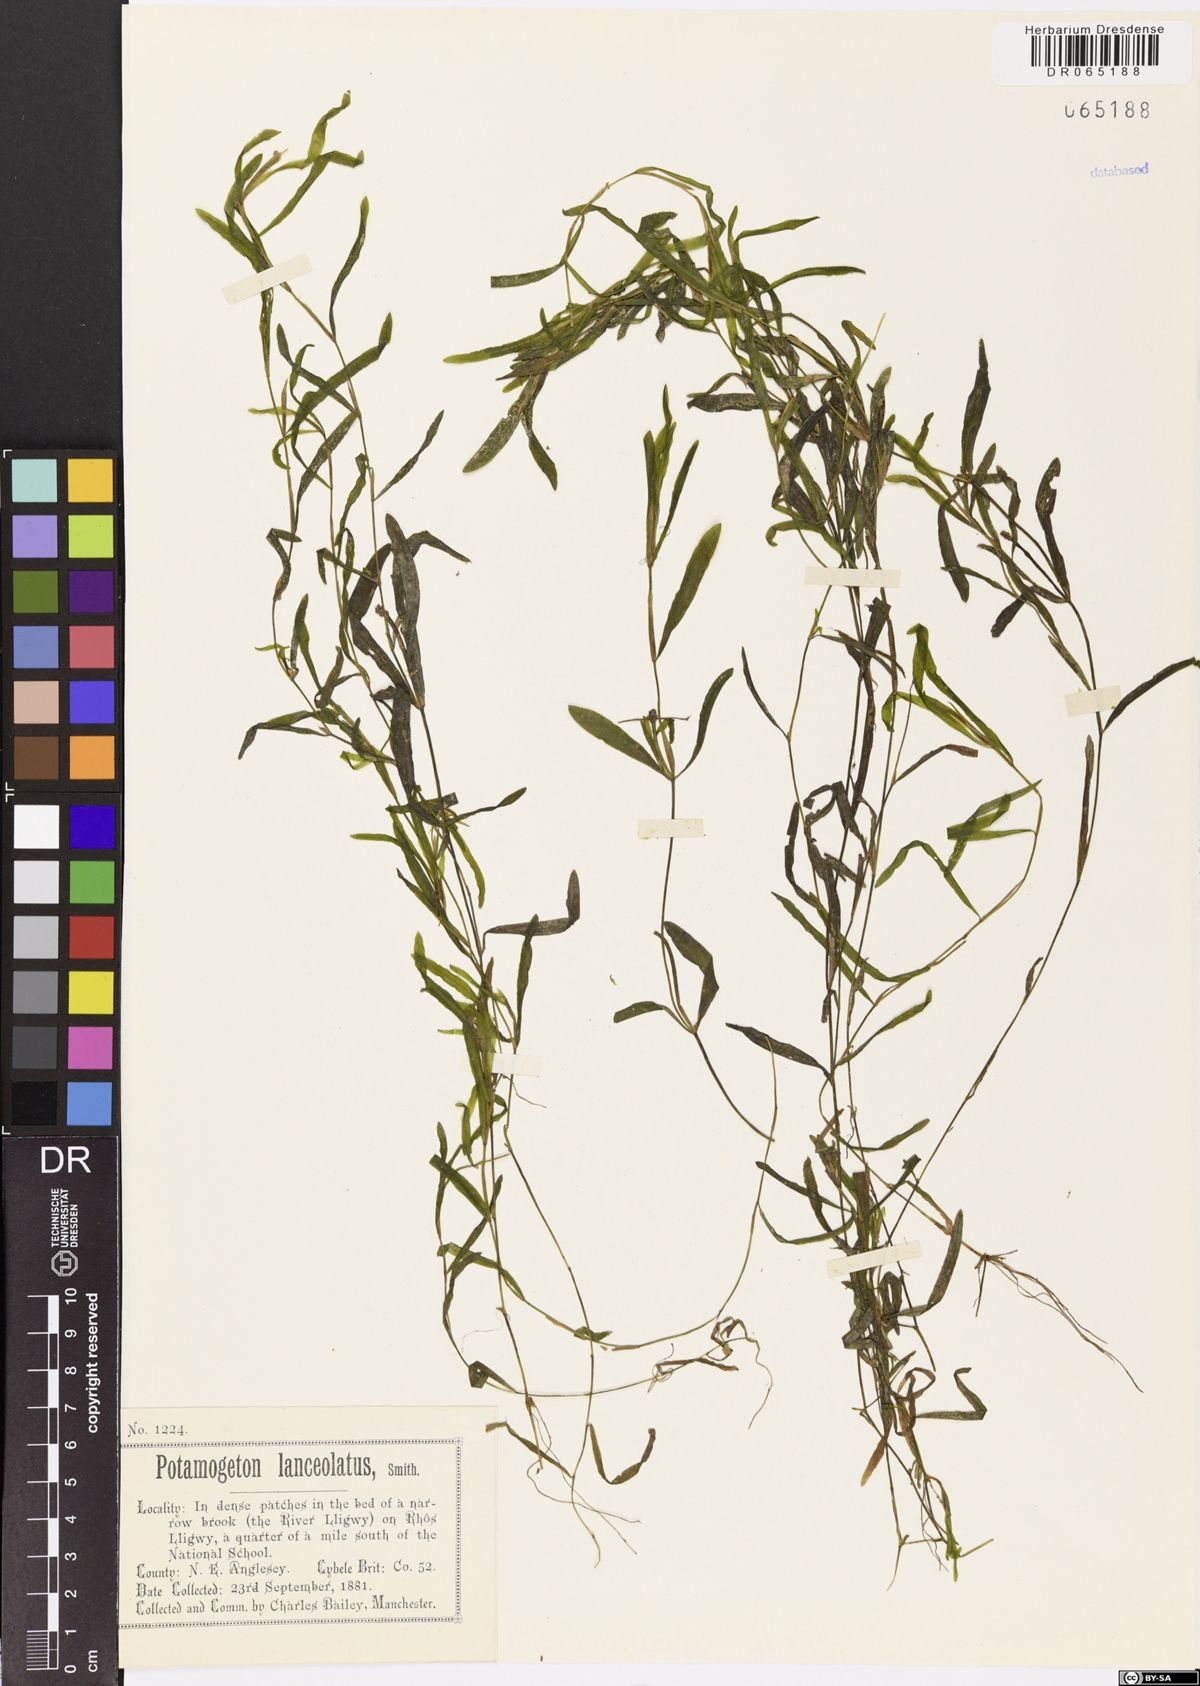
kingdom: Plantae
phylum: Tracheophyta
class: Liliopsida
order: Alismatales
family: Potamogetonaceae
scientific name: Potamogetonaceae
